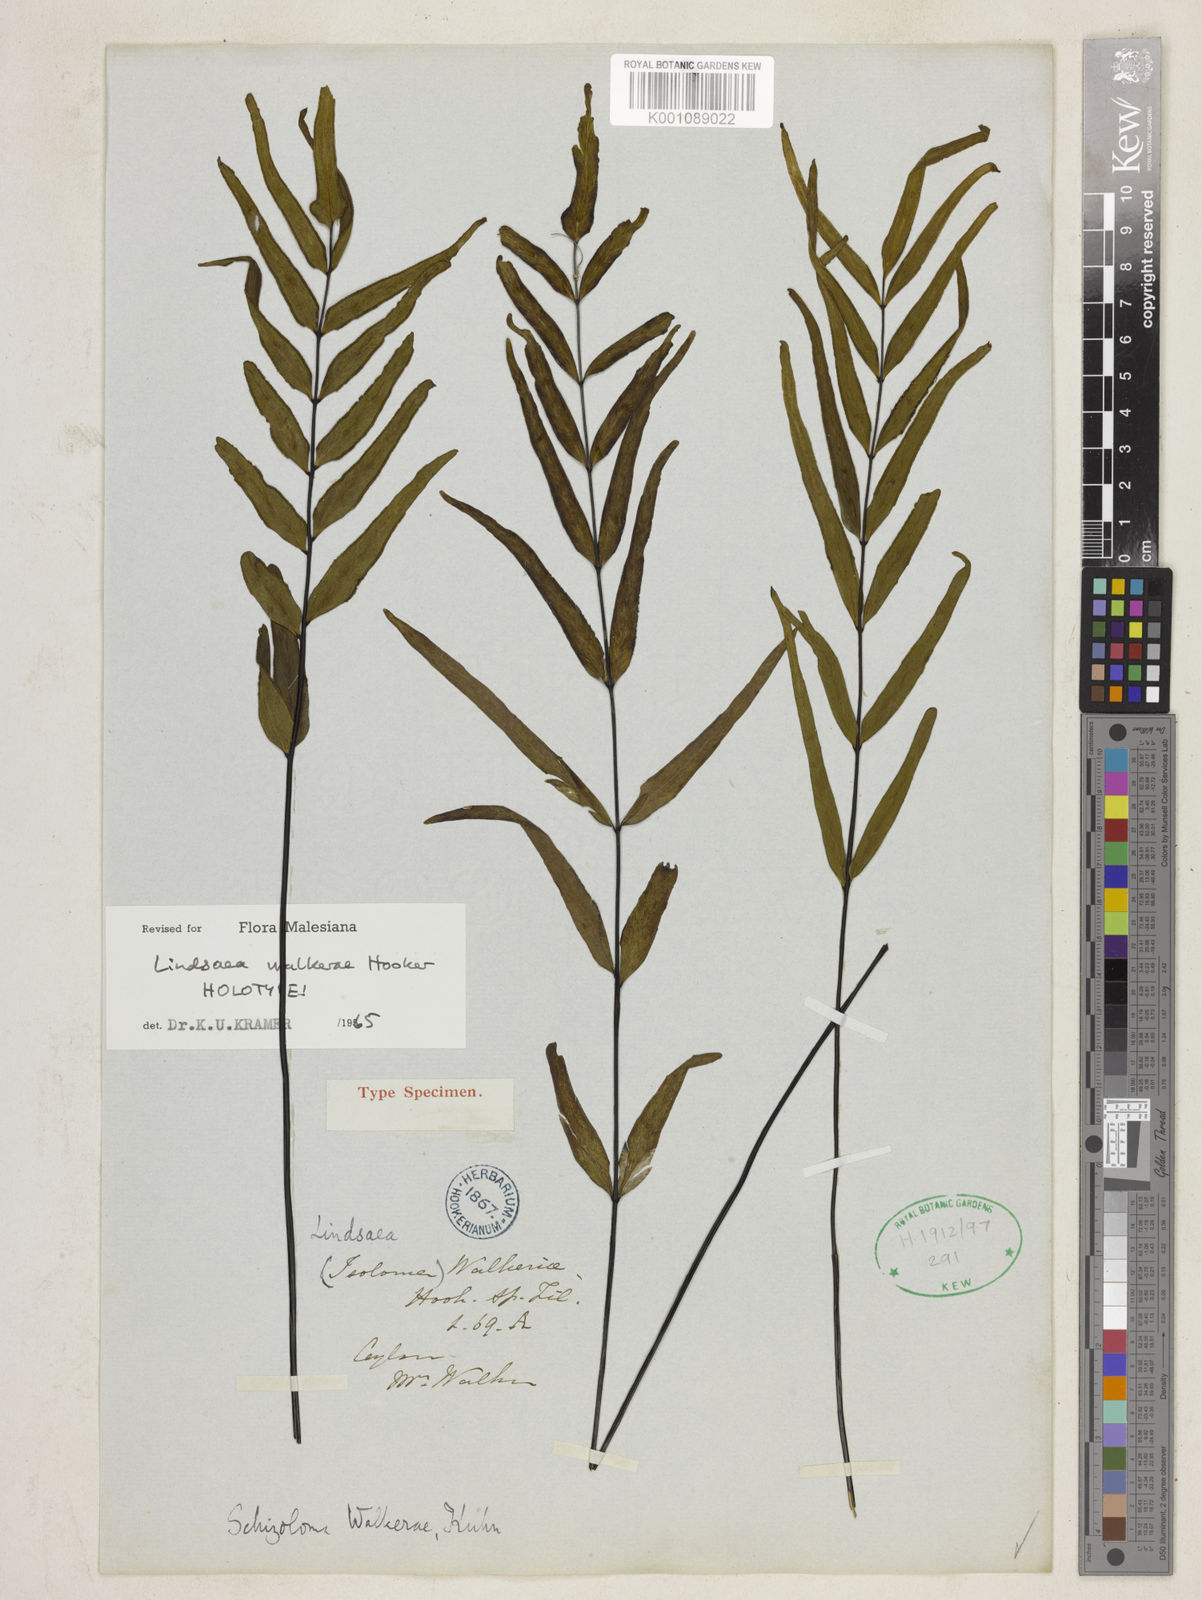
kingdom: Plantae
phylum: Tracheophyta
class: Polypodiopsida
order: Polypodiales
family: Lindsaeaceae
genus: Lindsaea
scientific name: Lindsaea walkerae
